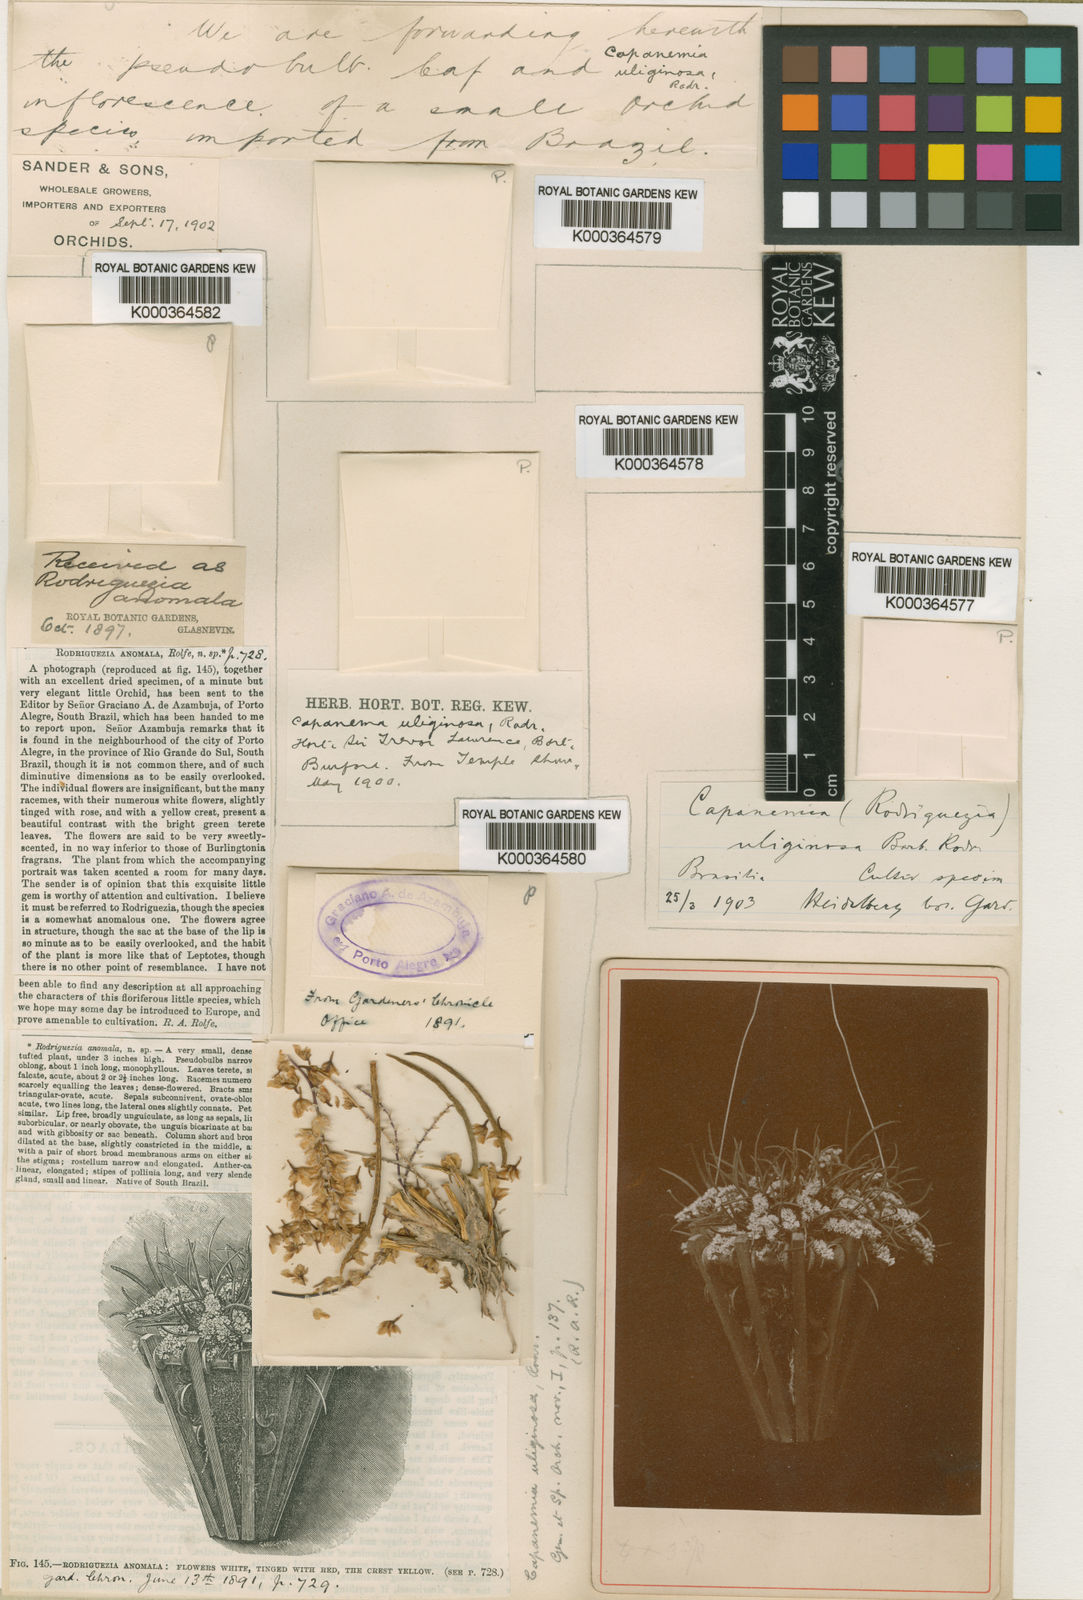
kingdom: Plantae
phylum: Tracheophyta
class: Liliopsida
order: Asparagales
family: Orchidaceae
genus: Capanemia
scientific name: Capanemia superflua
